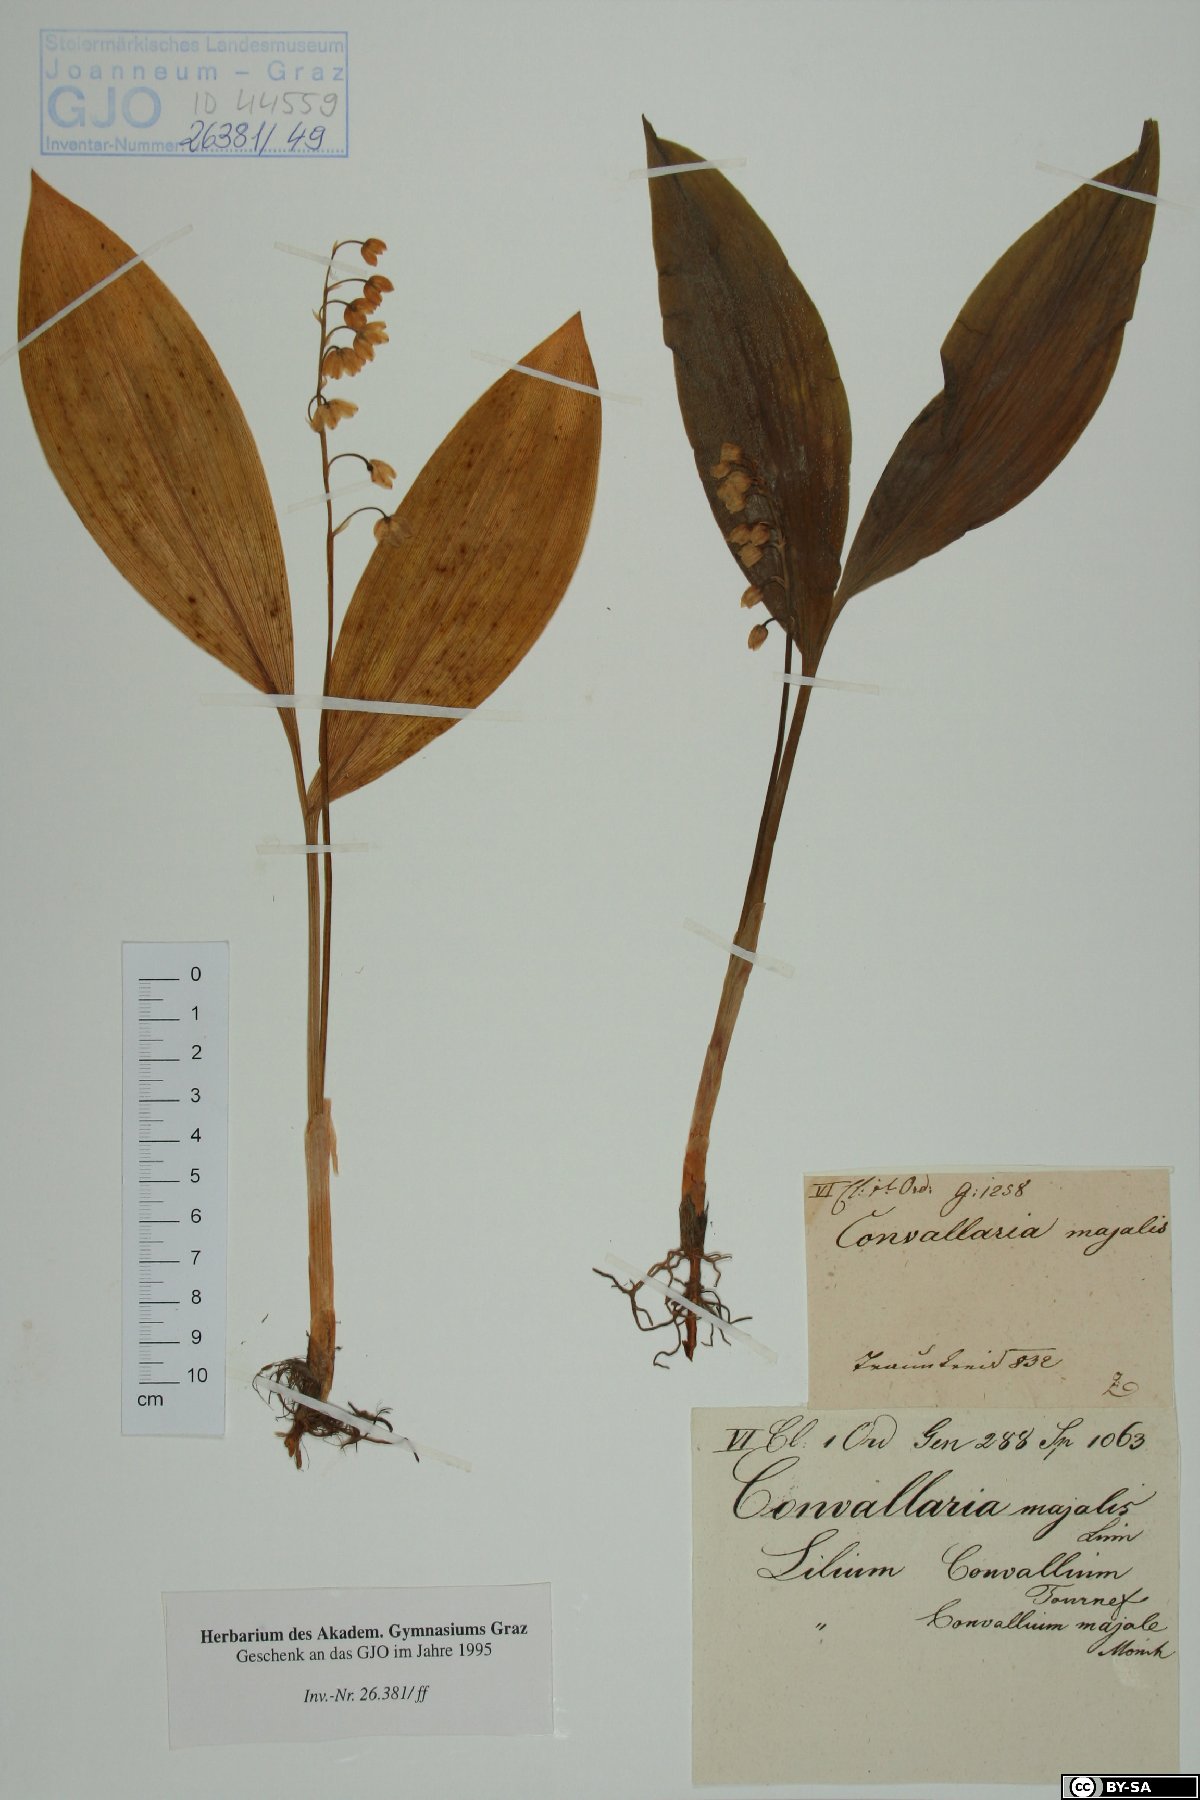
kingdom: Plantae
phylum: Tracheophyta
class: Liliopsida
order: Asparagales
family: Asparagaceae
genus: Convallaria
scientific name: Convallaria majalis
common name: Lily-of-the-valley
